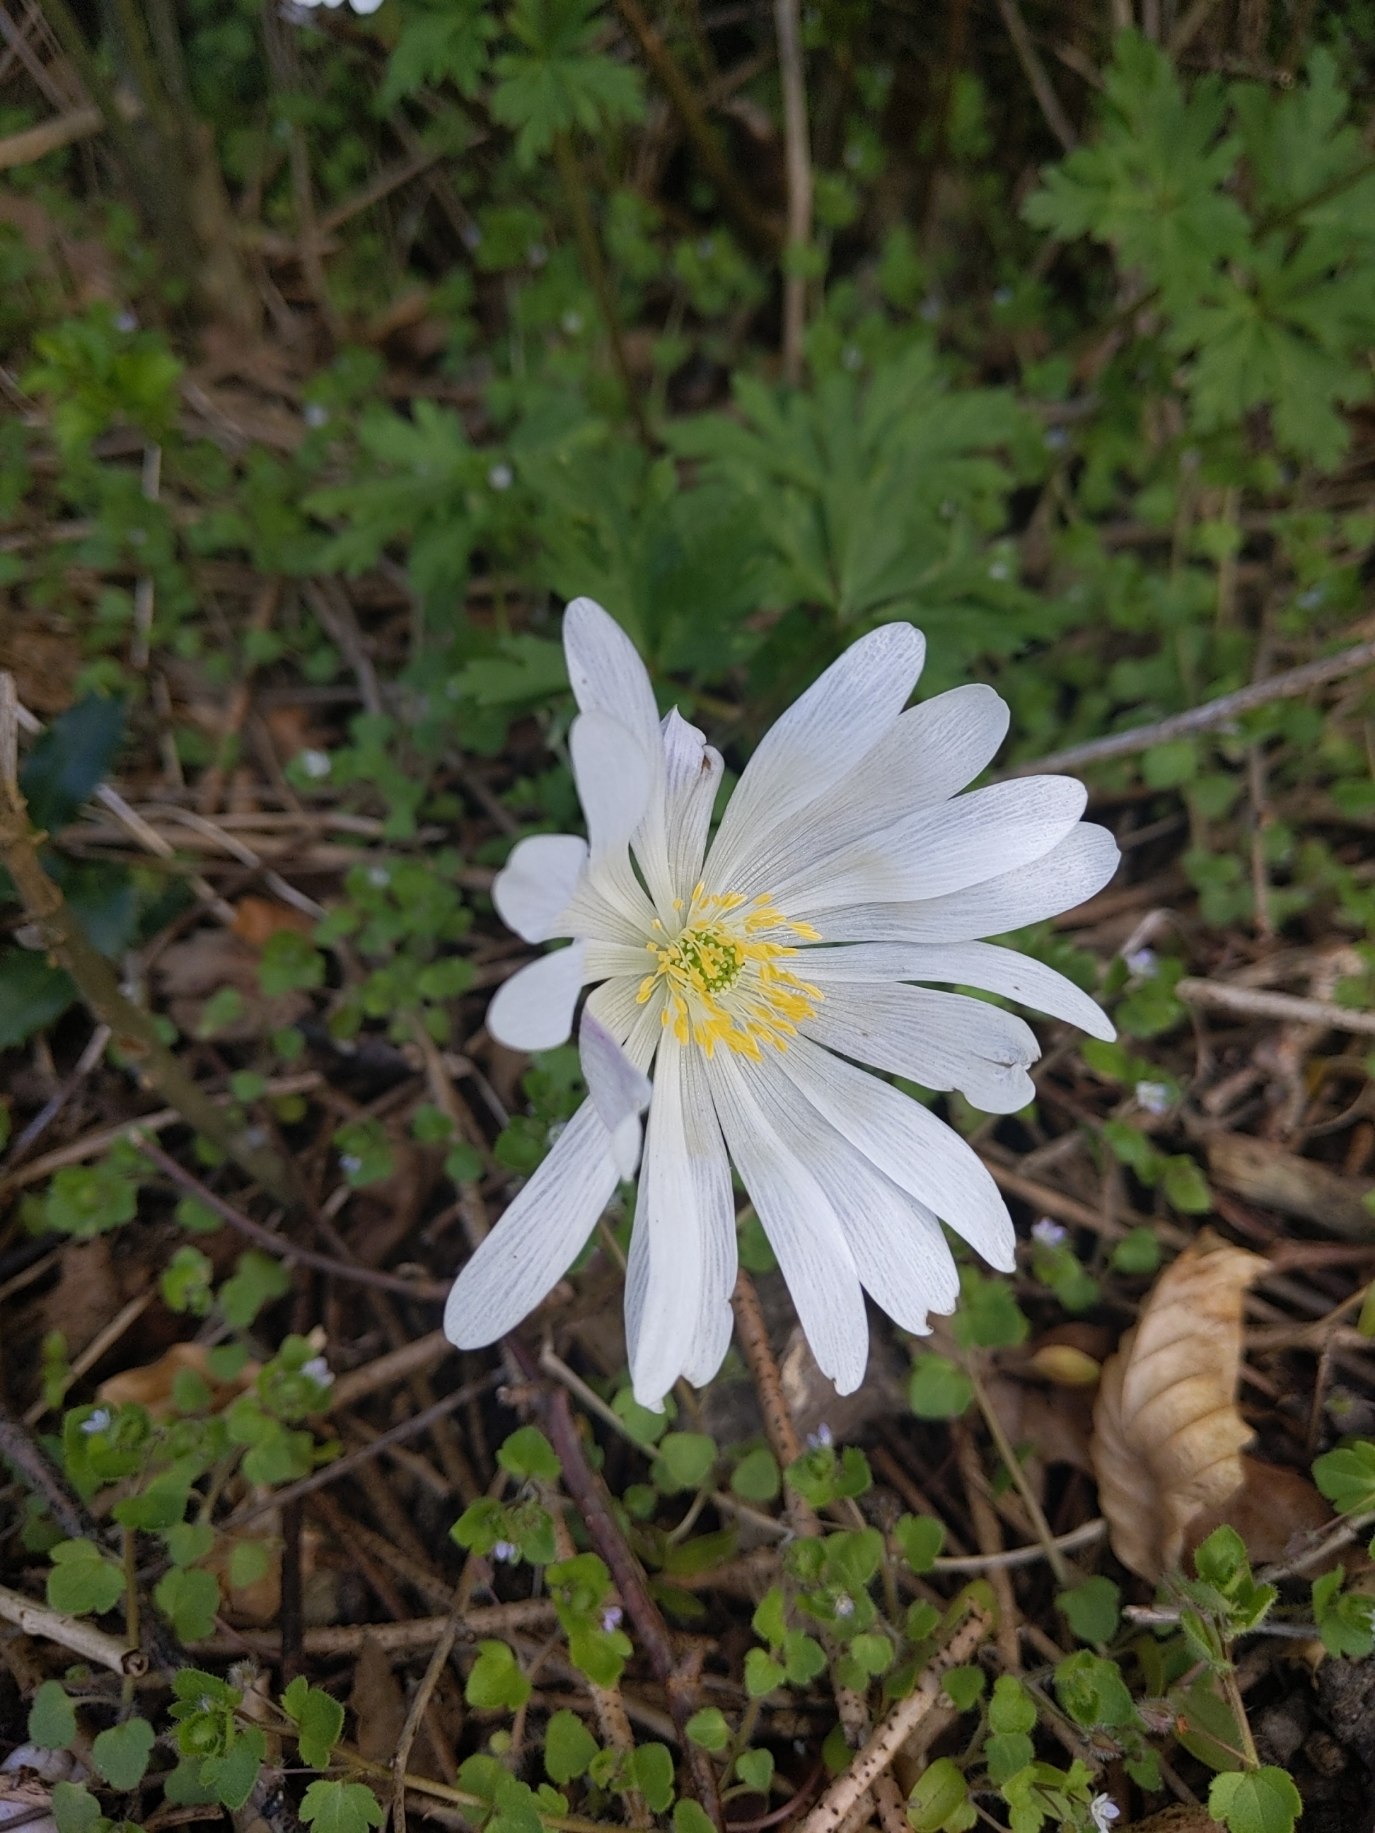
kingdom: Plantae
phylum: Tracheophyta
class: Magnoliopsida
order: Ranunculales
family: Ranunculaceae
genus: Anemone
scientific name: Anemone blanda
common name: Balkan-anemone
